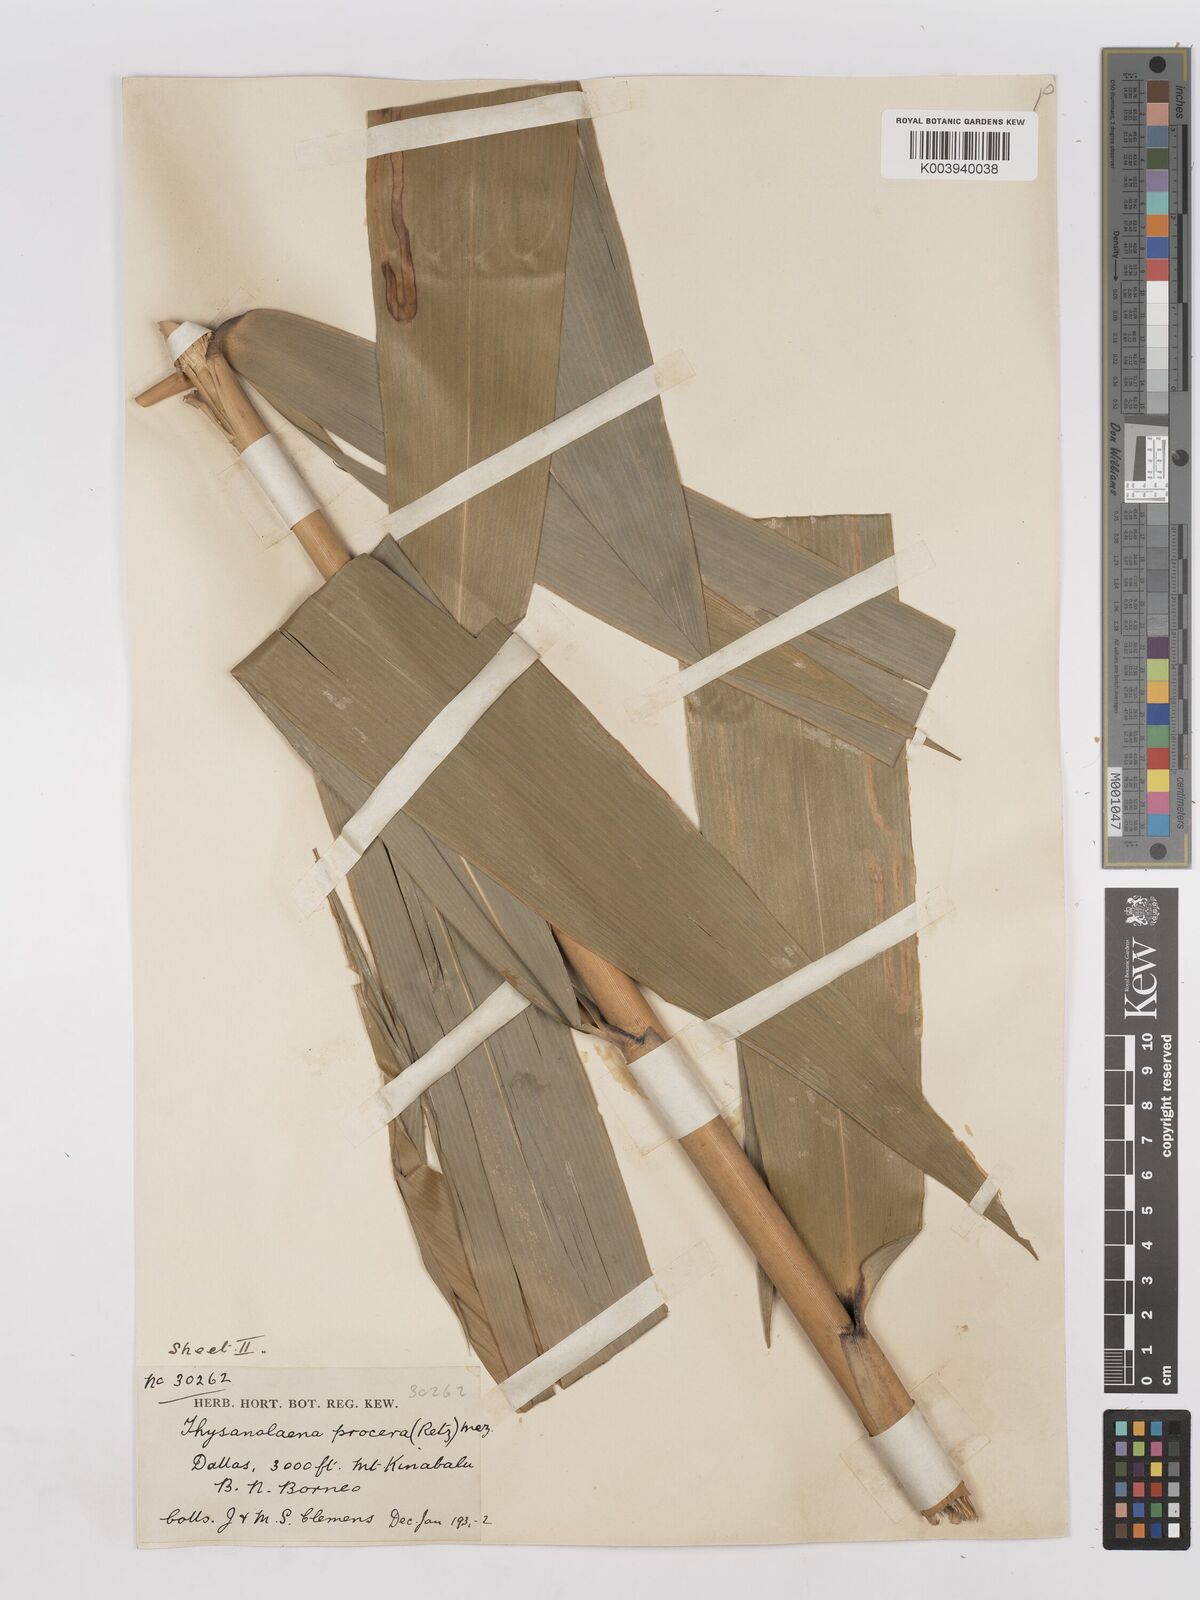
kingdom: Plantae
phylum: Tracheophyta
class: Liliopsida
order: Poales
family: Poaceae
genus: Thysanolaena
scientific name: Thysanolaena latifolia
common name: Tiger grass
